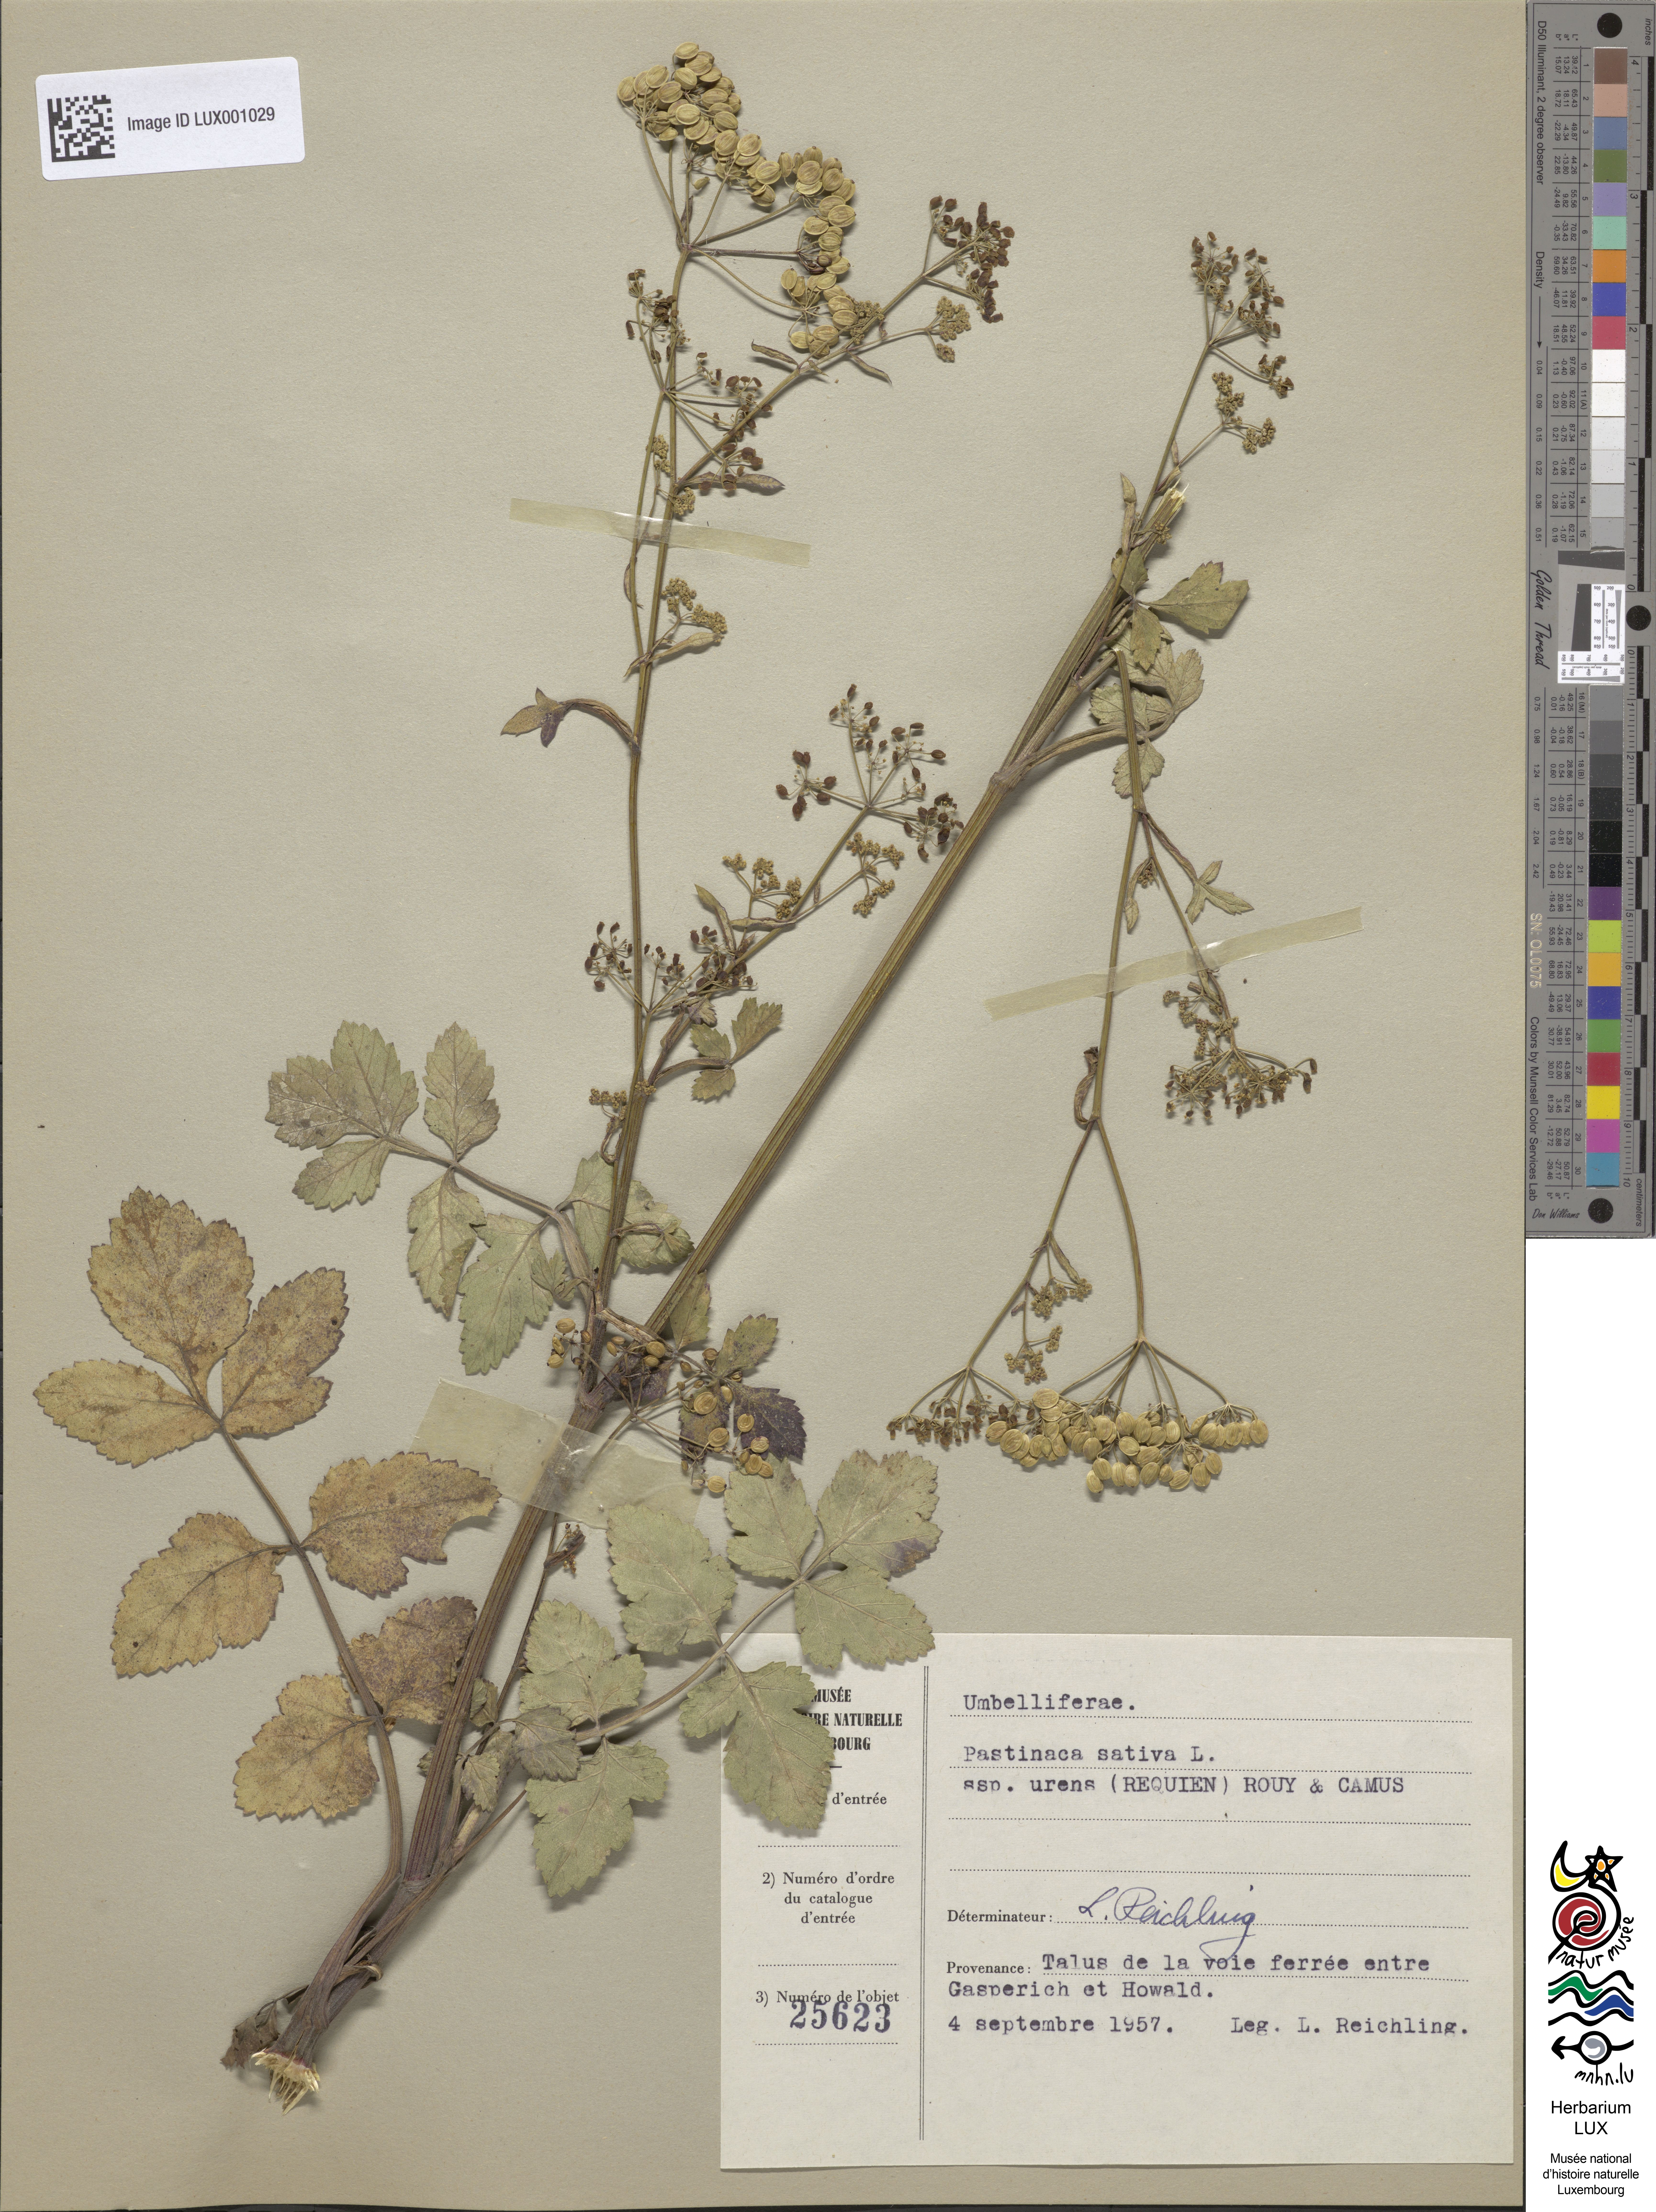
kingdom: Plantae
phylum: Tracheophyta
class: Magnoliopsida
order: Apiales
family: Apiaceae
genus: Pastinaca
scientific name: Pastinaca sativa
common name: Wild parsnip
